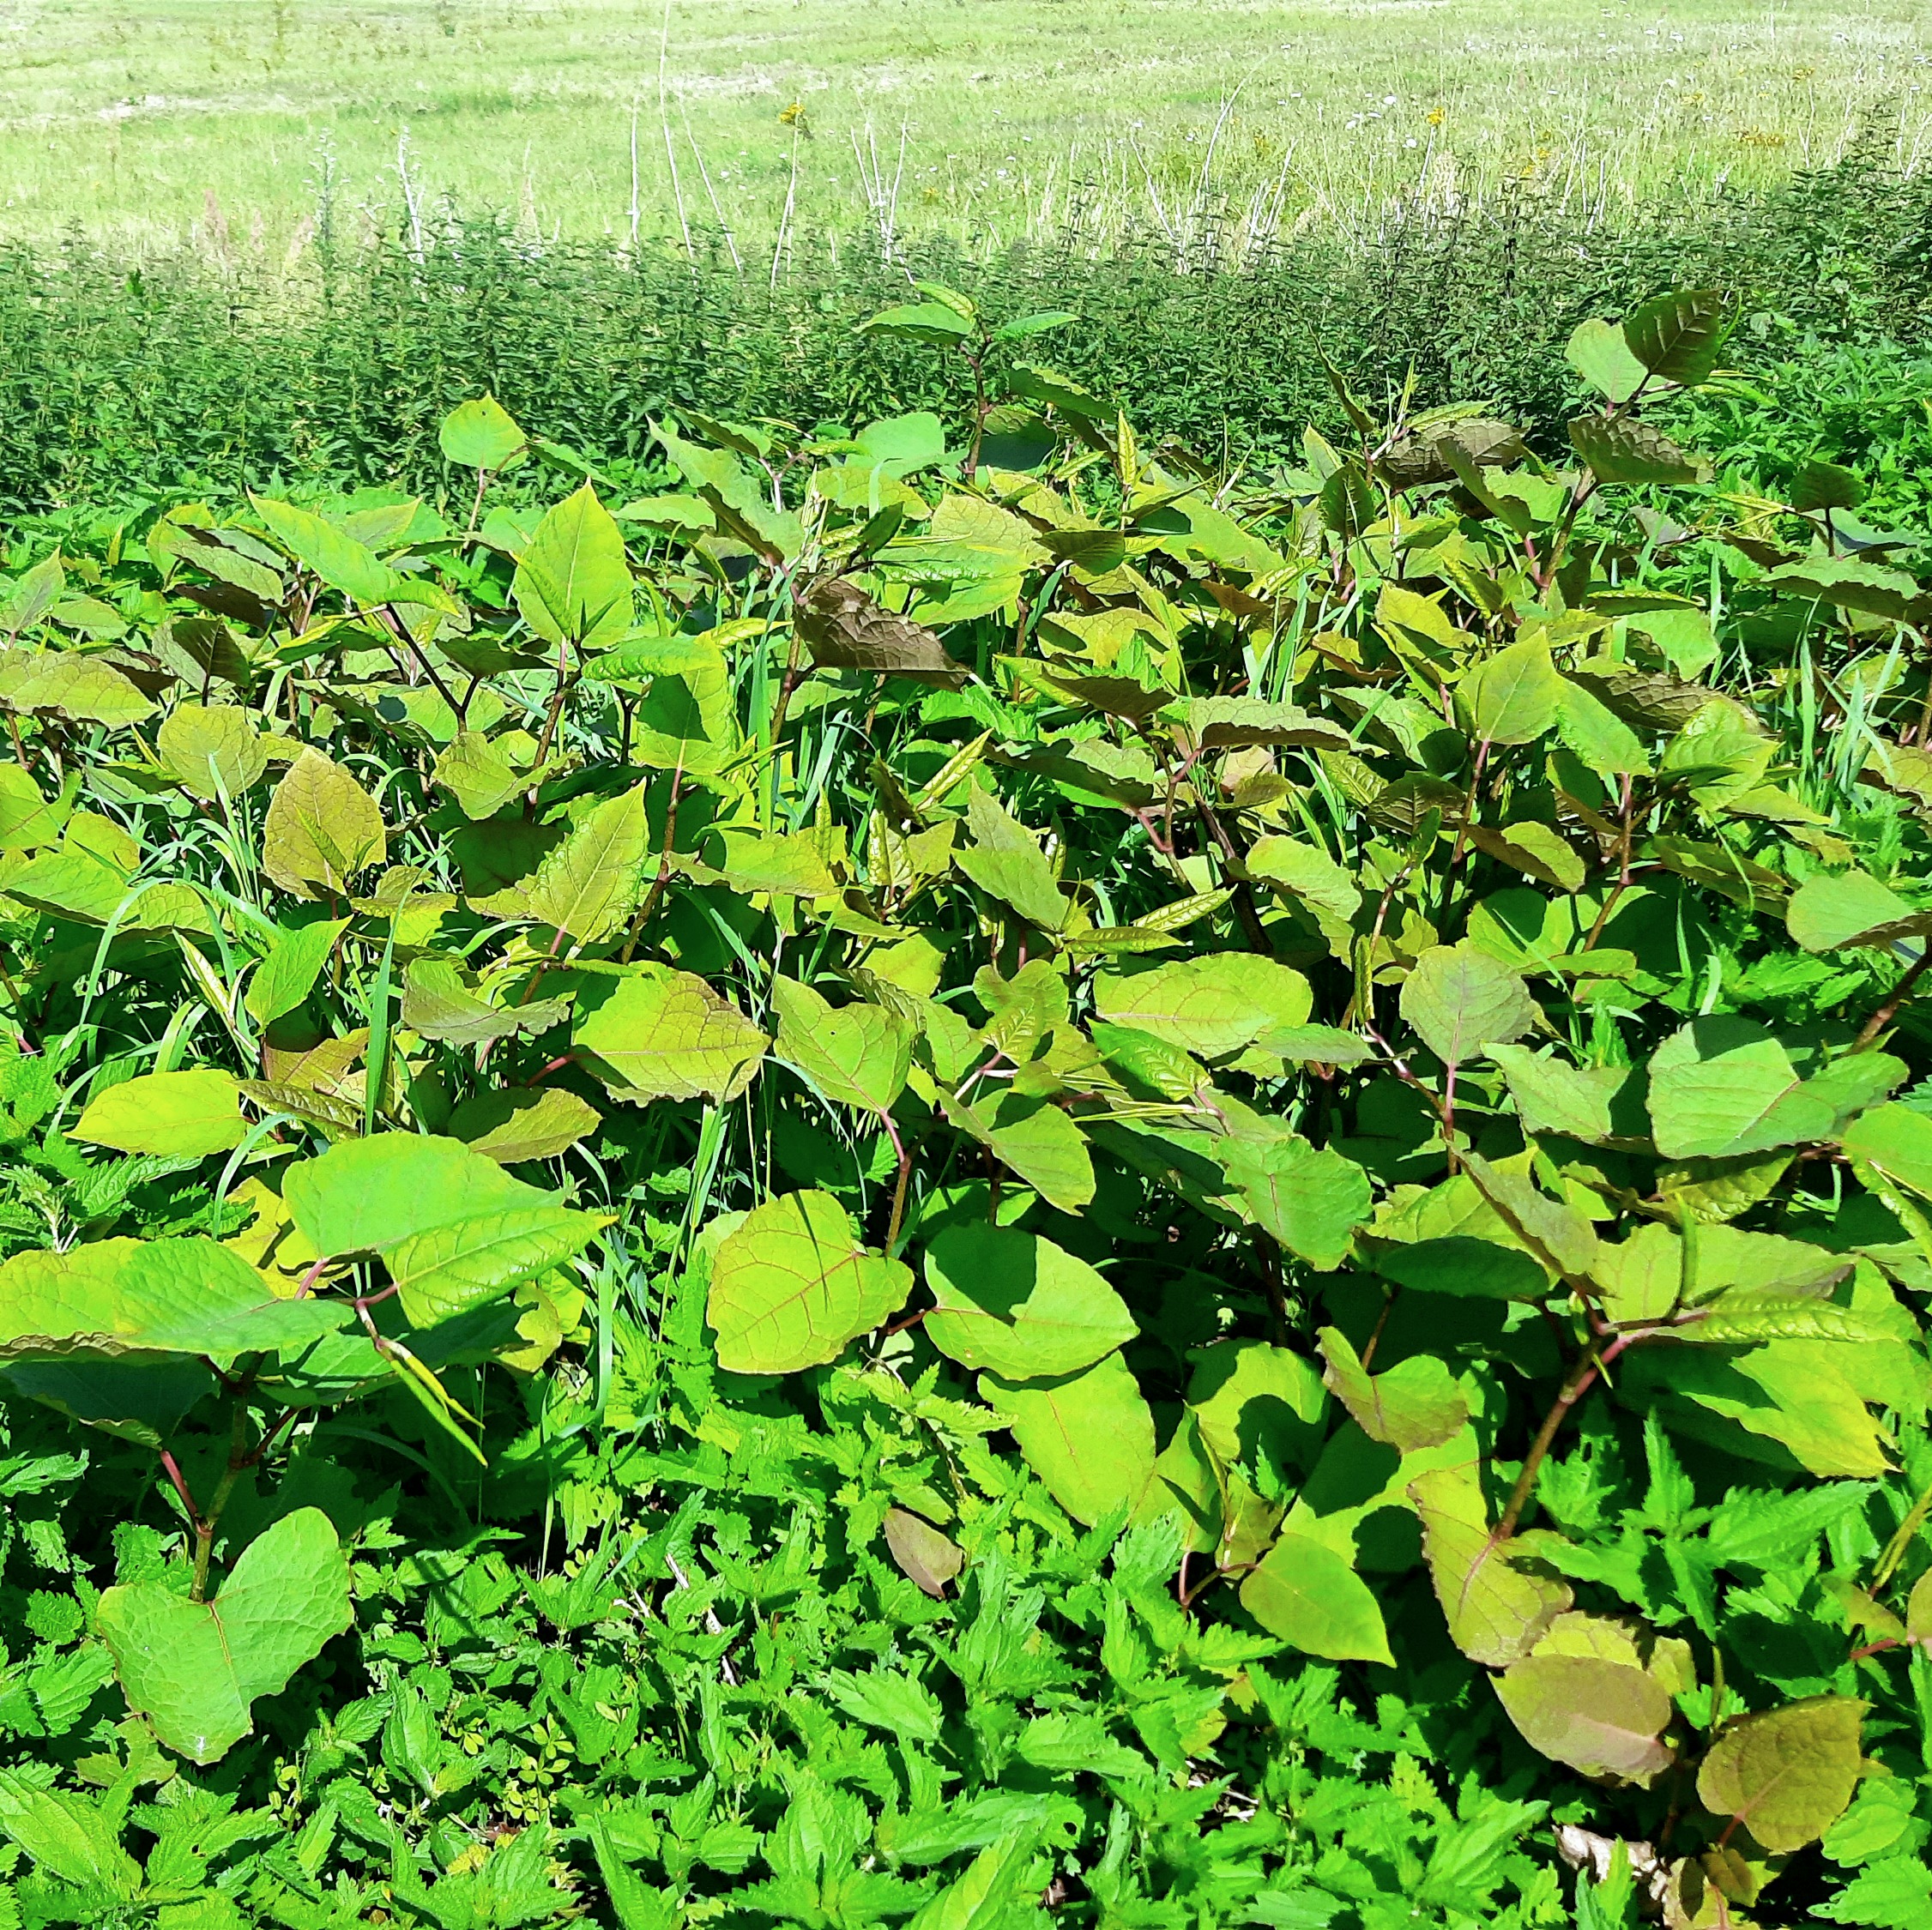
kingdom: Plantae
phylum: Tracheophyta
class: Magnoliopsida
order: Caryophyllales
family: Polygonaceae
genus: Reynoutria
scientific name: Reynoutria bohemica
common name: Hybrid-pileurt
